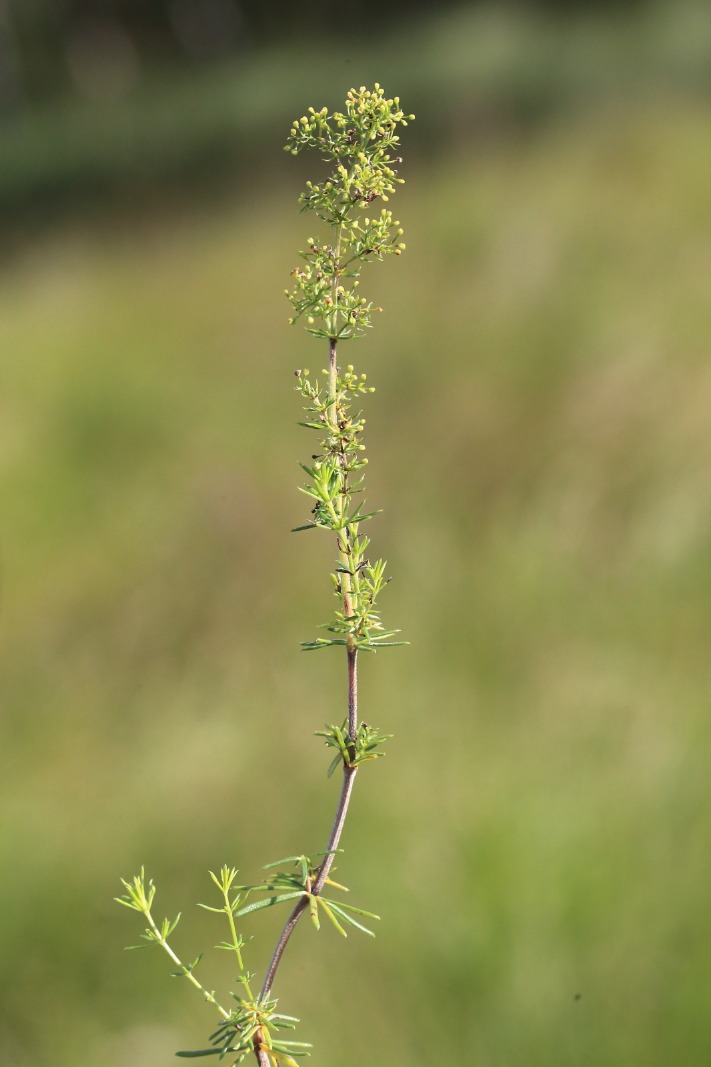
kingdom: Plantae
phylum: Tracheophyta
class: Magnoliopsida
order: Gentianales
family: Rubiaceae
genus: Galium
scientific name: Galium verum
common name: Gul snerre
